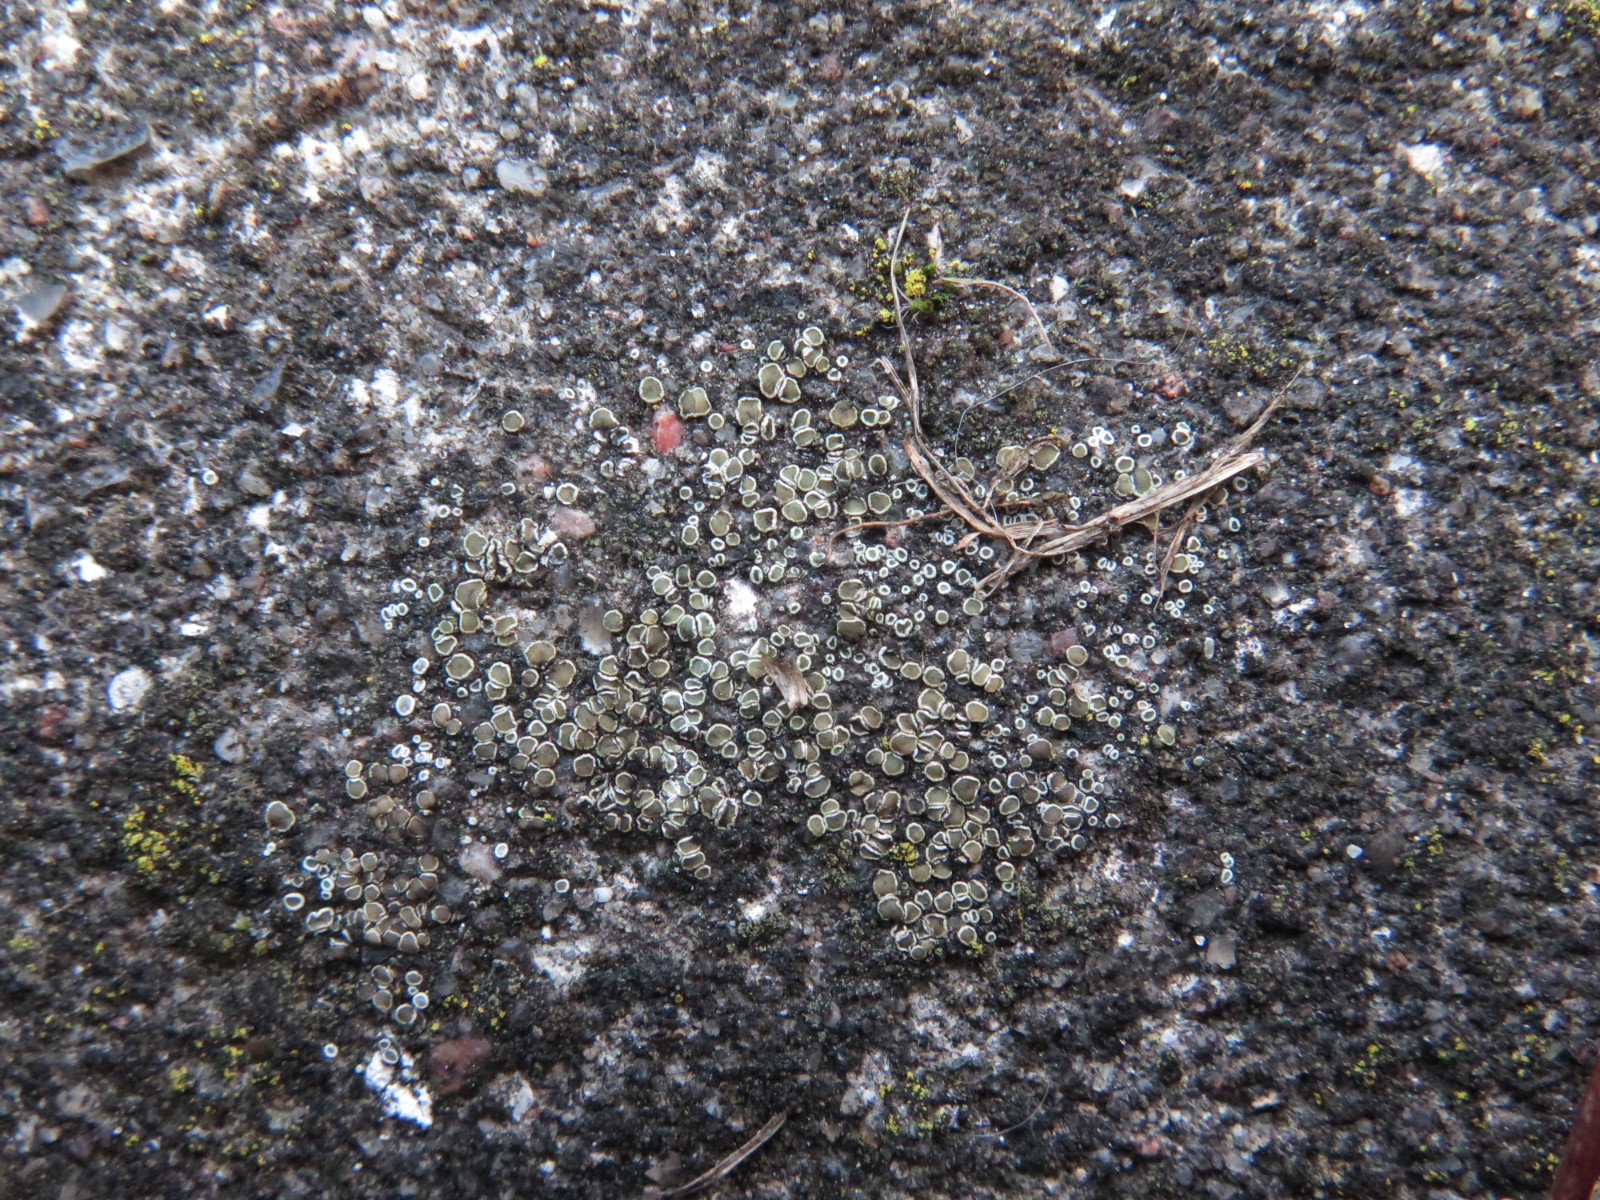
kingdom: Fungi
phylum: Ascomycota
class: Lecanoromycetes
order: Lecanorales
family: Lecanoraceae
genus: Polyozosia
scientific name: Polyozosia dispersa
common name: spredt kantskivelav
